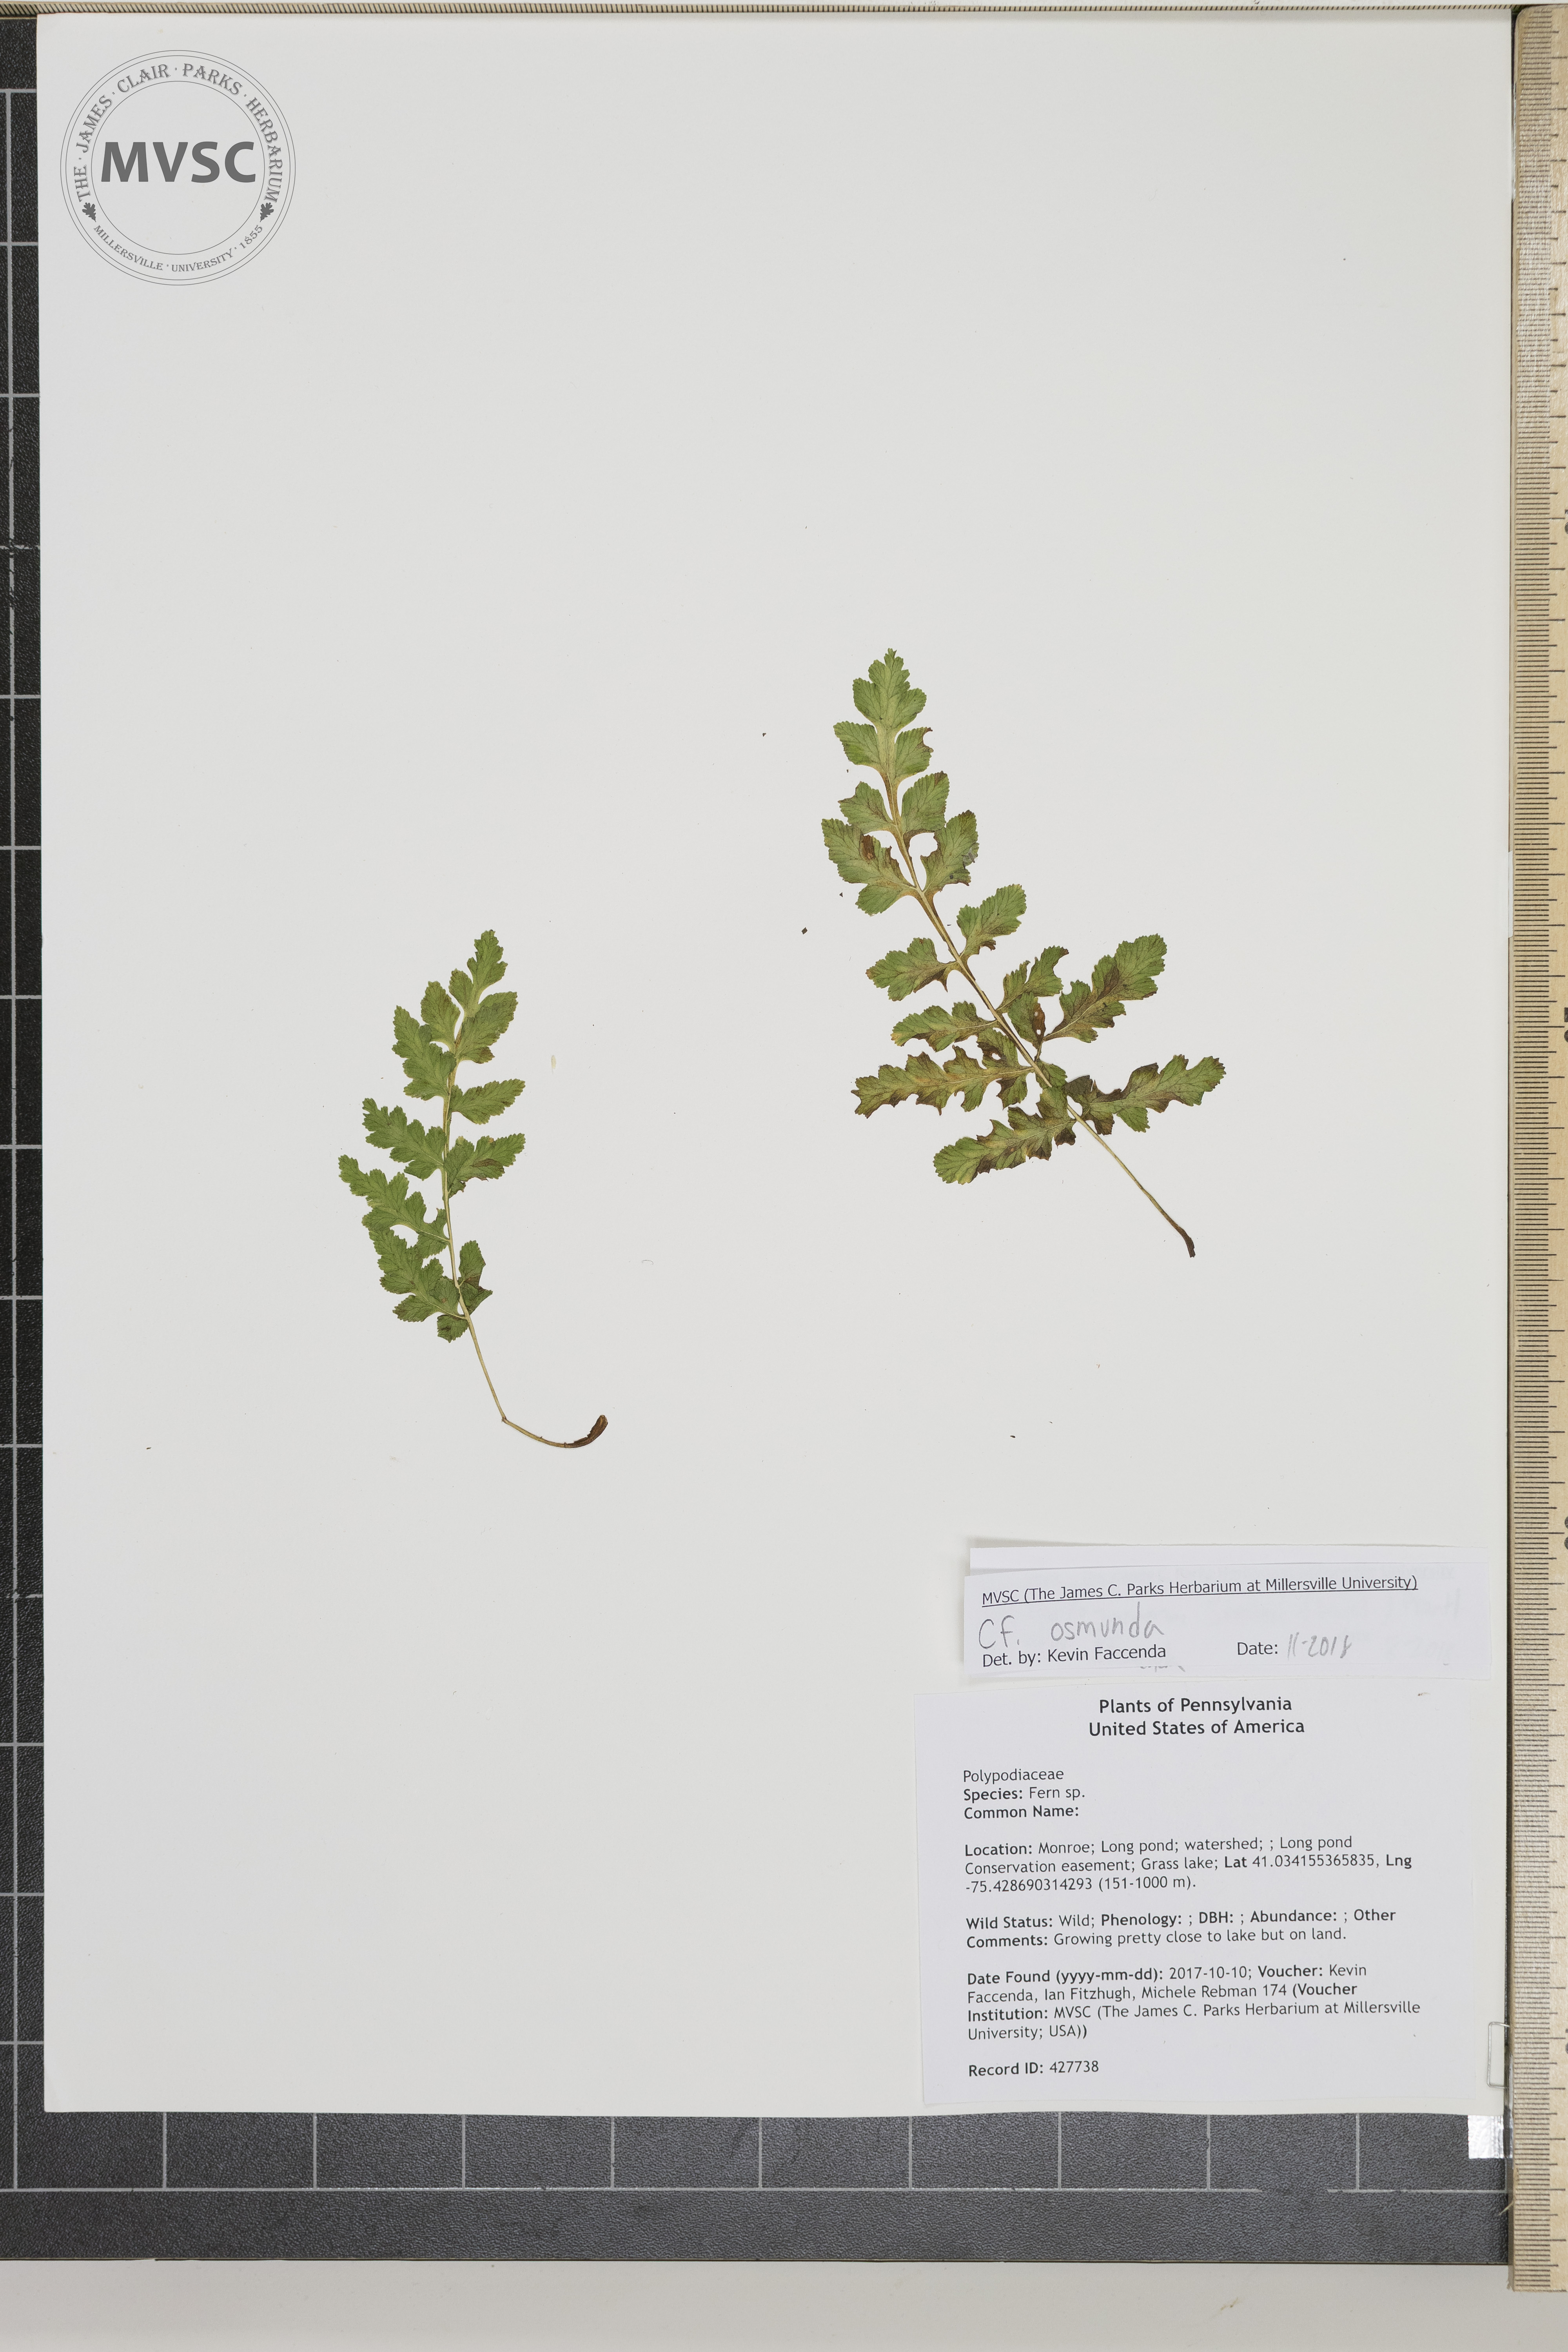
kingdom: Plantae
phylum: Tracheophyta
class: Polypodiopsida
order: Osmundales
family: Osmundaceae
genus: Osmunda
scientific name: Osmunda
